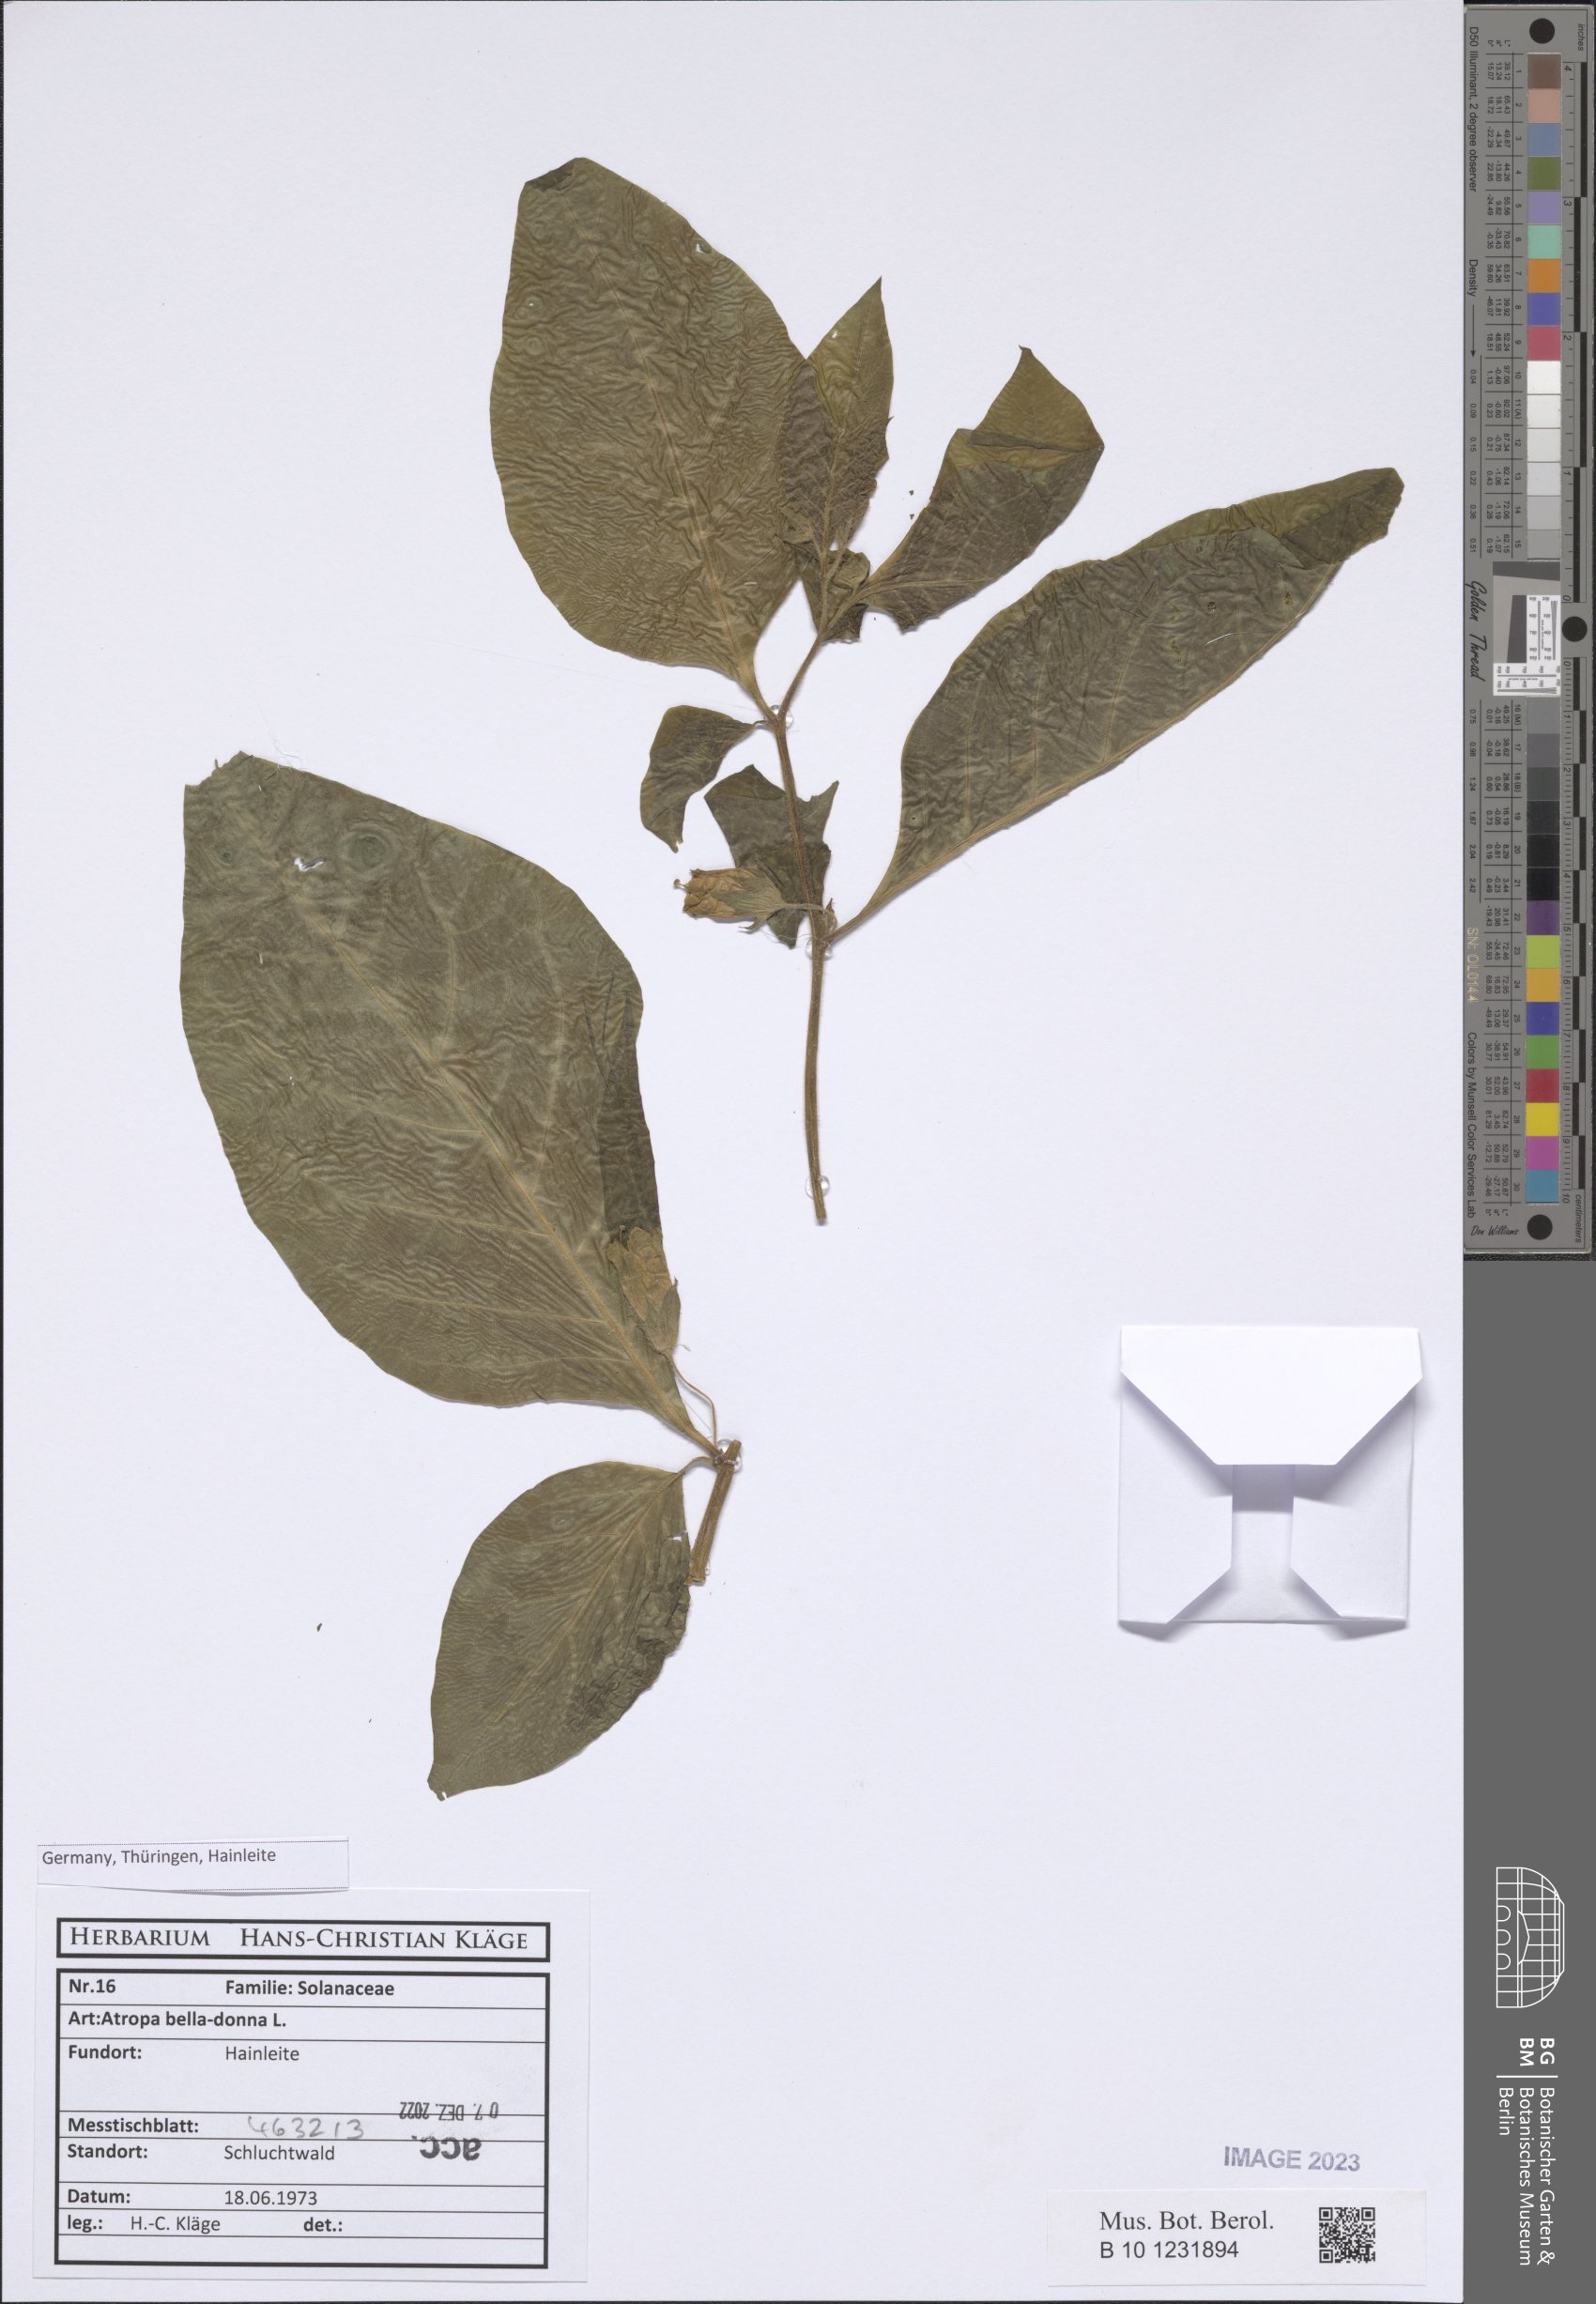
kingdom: Plantae
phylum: Tracheophyta
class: Magnoliopsida
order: Solanales
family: Solanaceae
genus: Atropa
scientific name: Atropa belladonna
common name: Deadly nightshade
